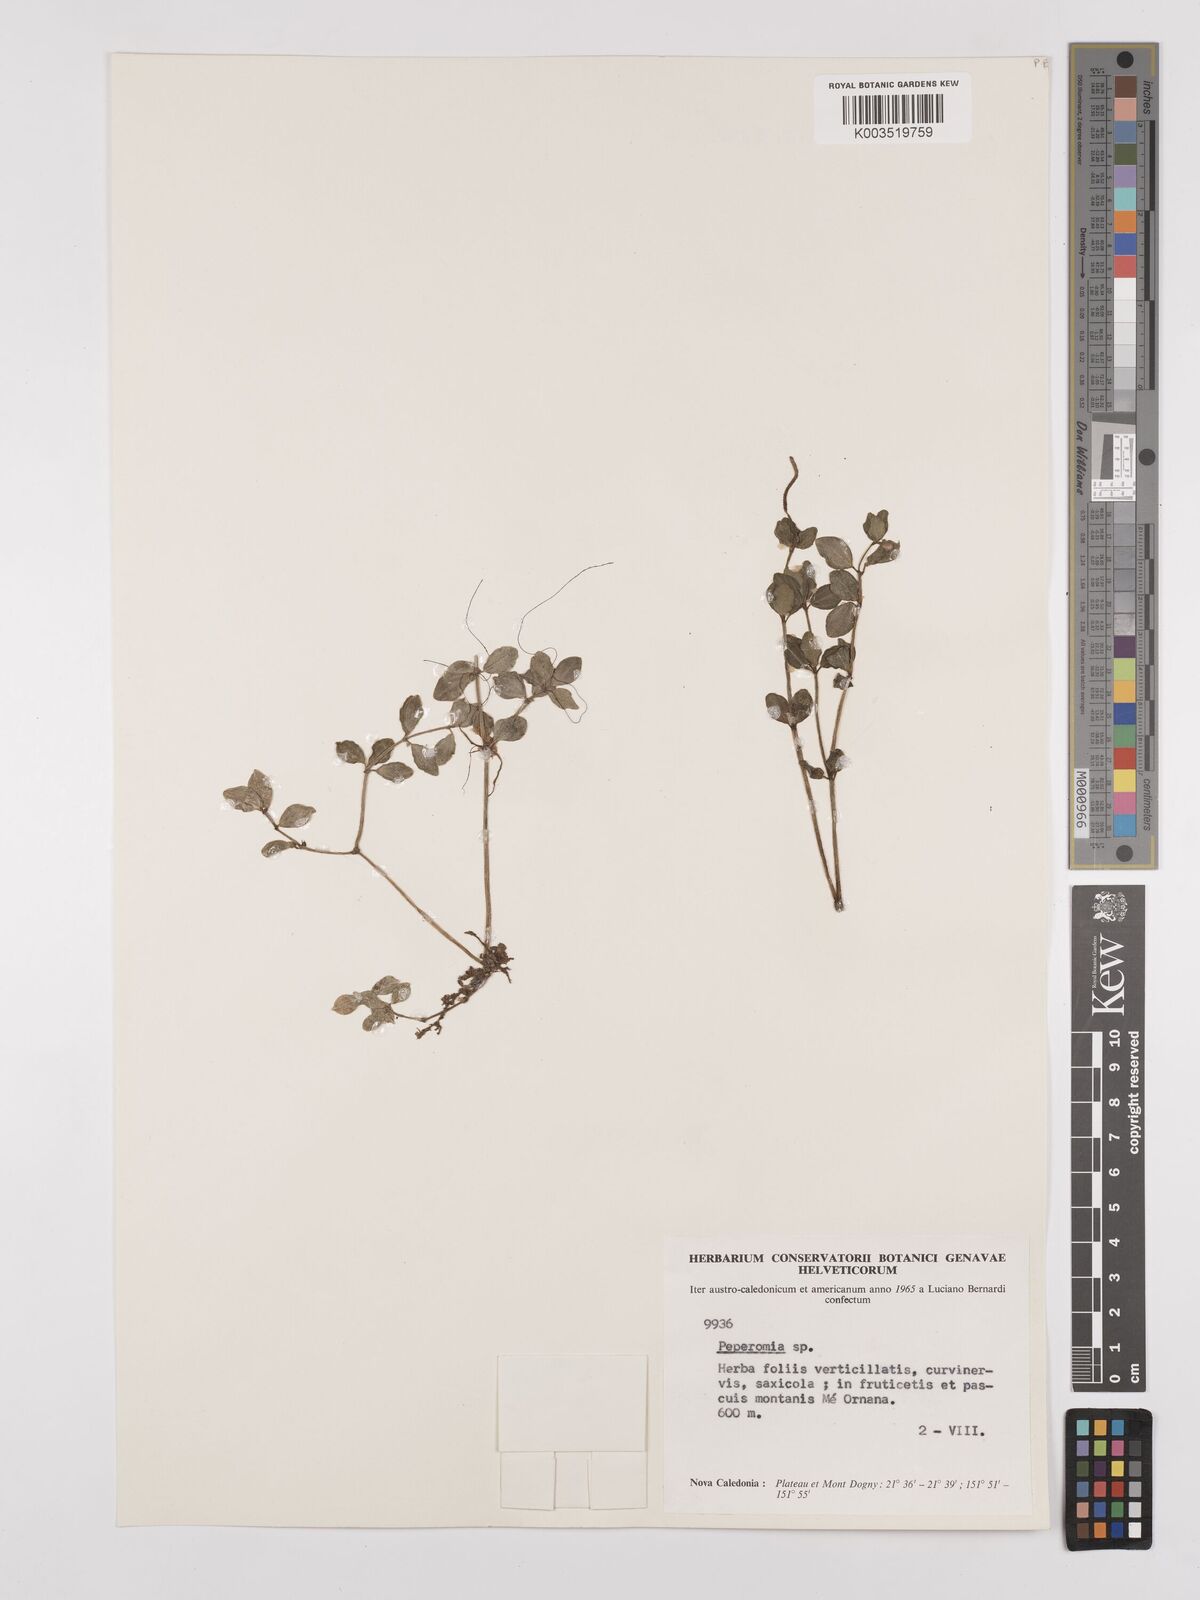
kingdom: Plantae
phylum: Tracheophyta
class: Magnoliopsida
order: Piperales
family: Piperaceae
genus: Peperomia
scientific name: Peperomia
